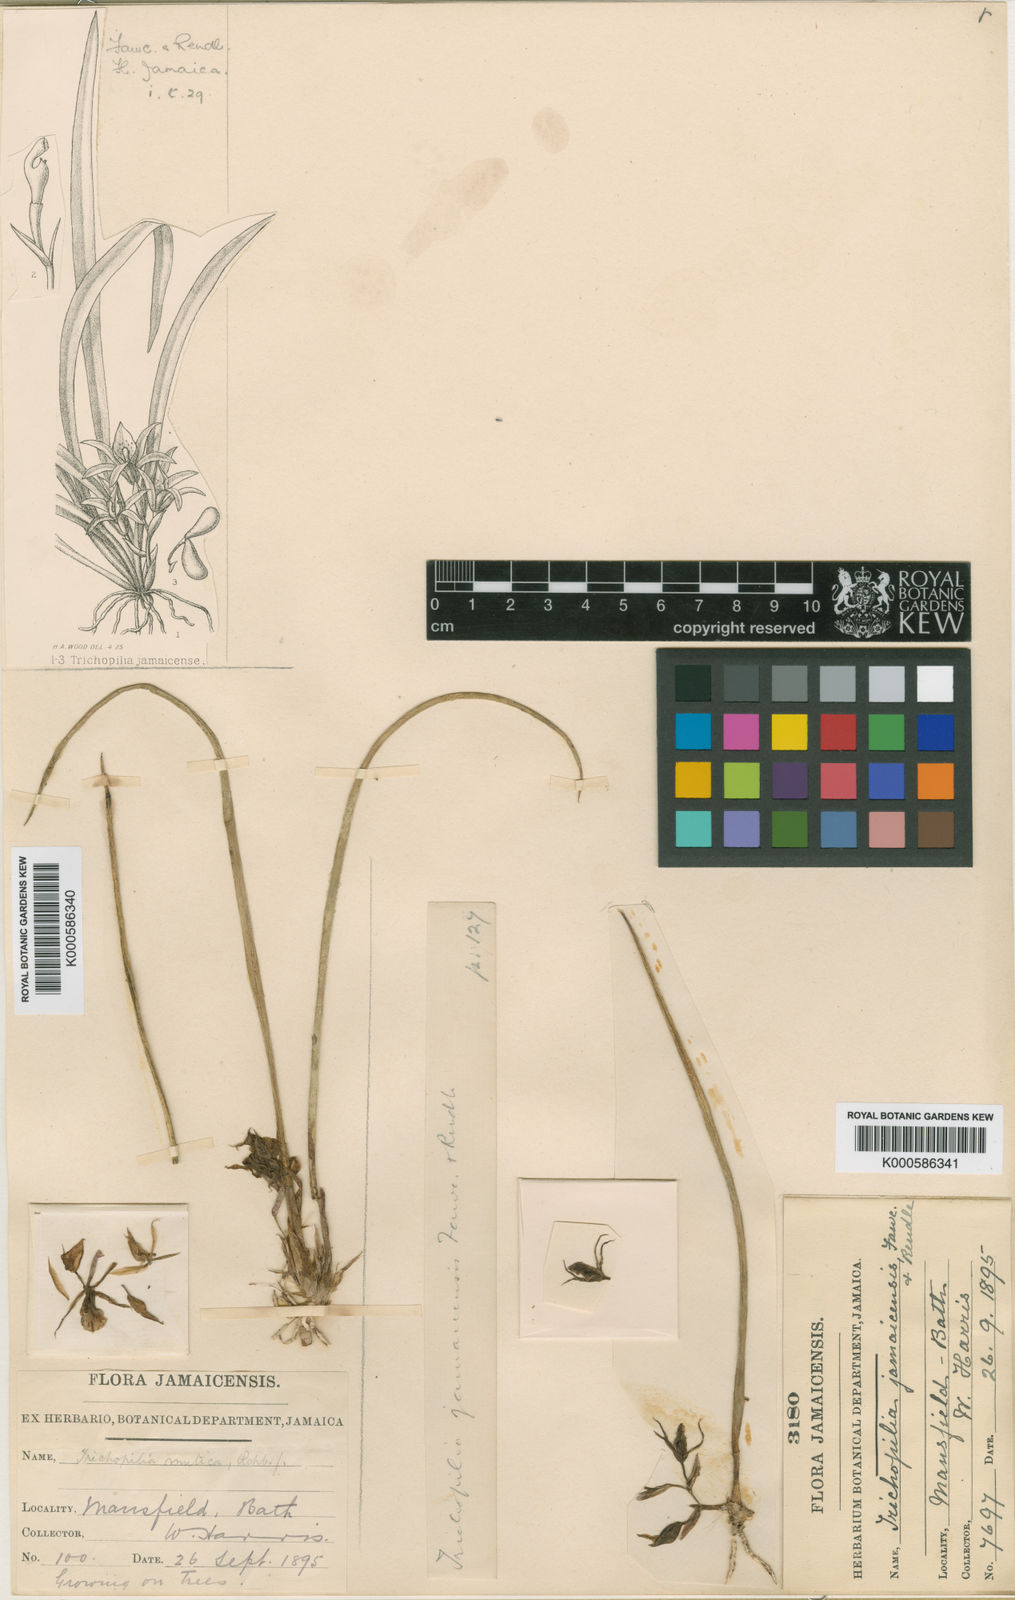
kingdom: Plantae
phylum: Tracheophyta
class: Liliopsida
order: Asparagales
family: Orchidaceae
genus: Trichopilia
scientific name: Trichopilia subulata
